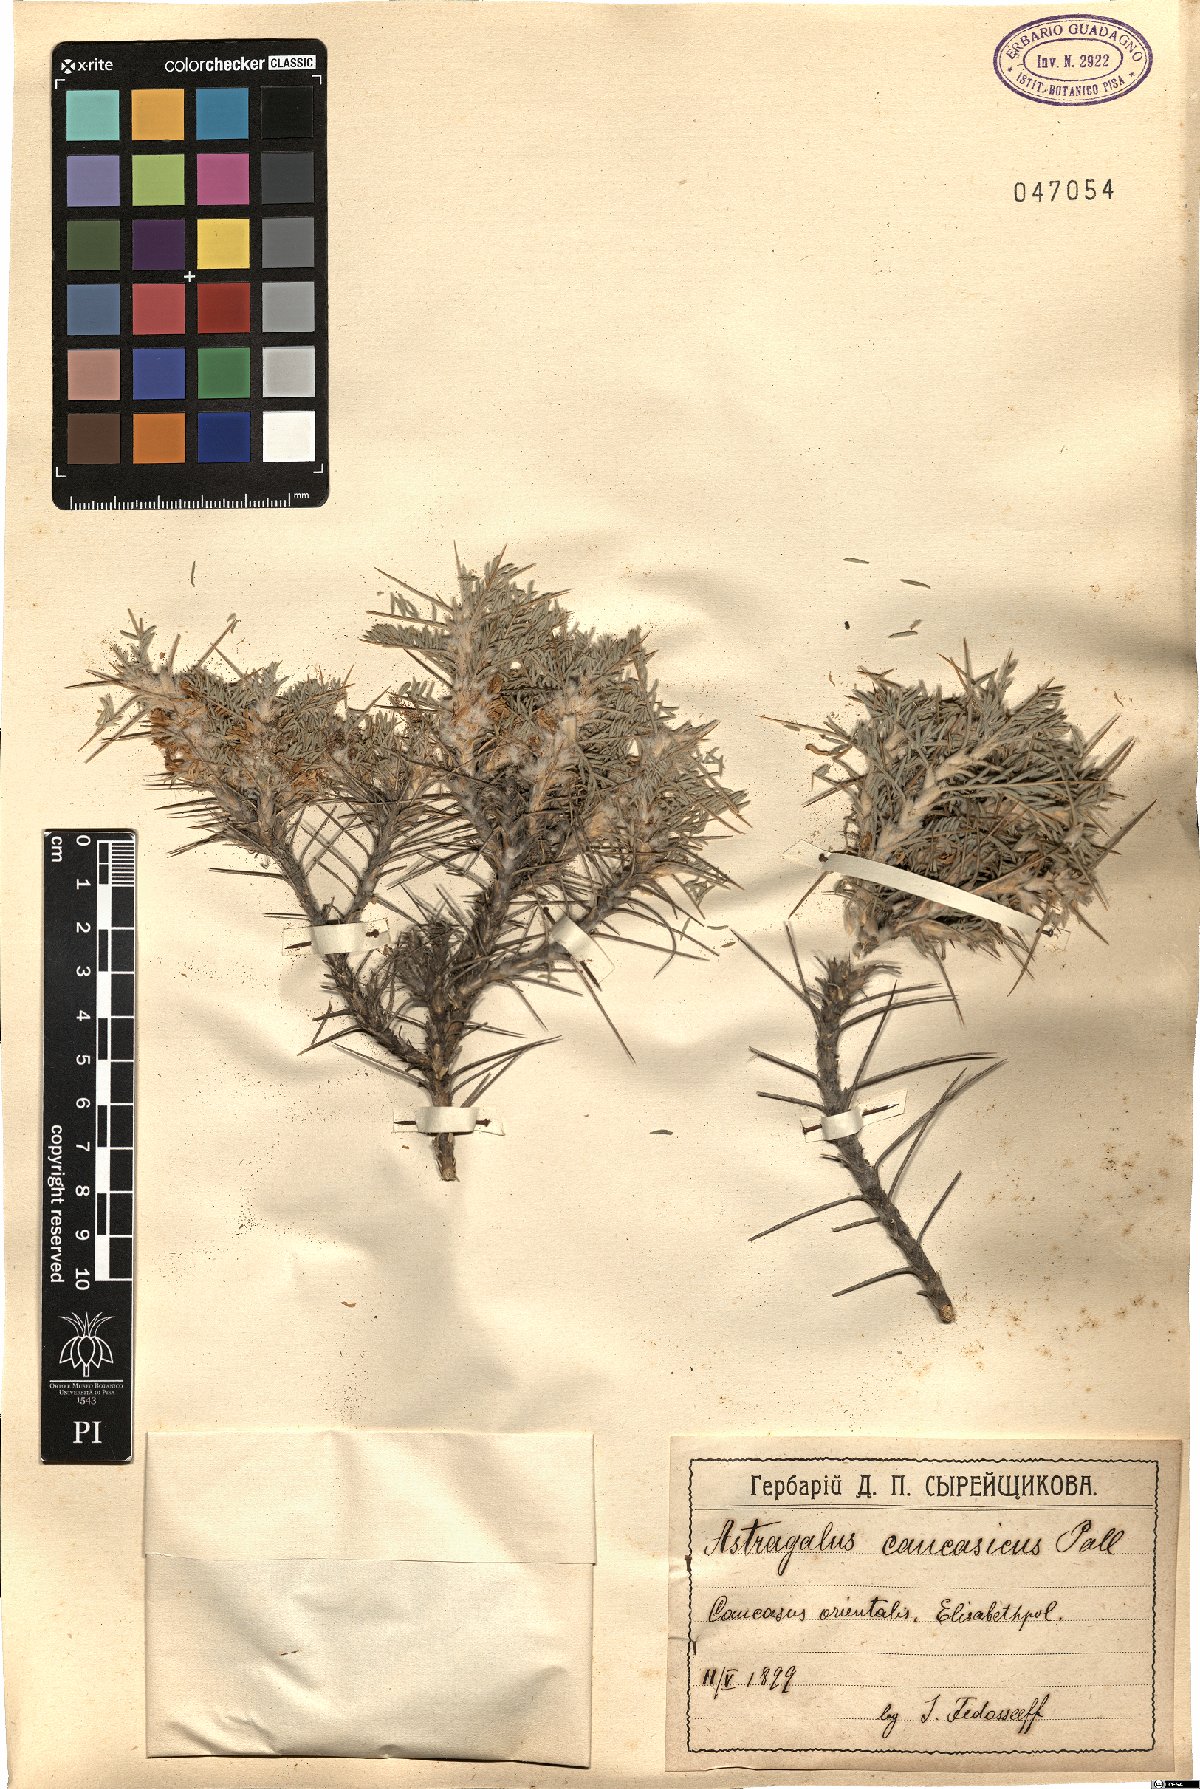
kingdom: Plantae
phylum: Tracheophyta
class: Magnoliopsida
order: Fabales
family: Fabaceae
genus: Astragalus
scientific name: Astragalus caucasicus
